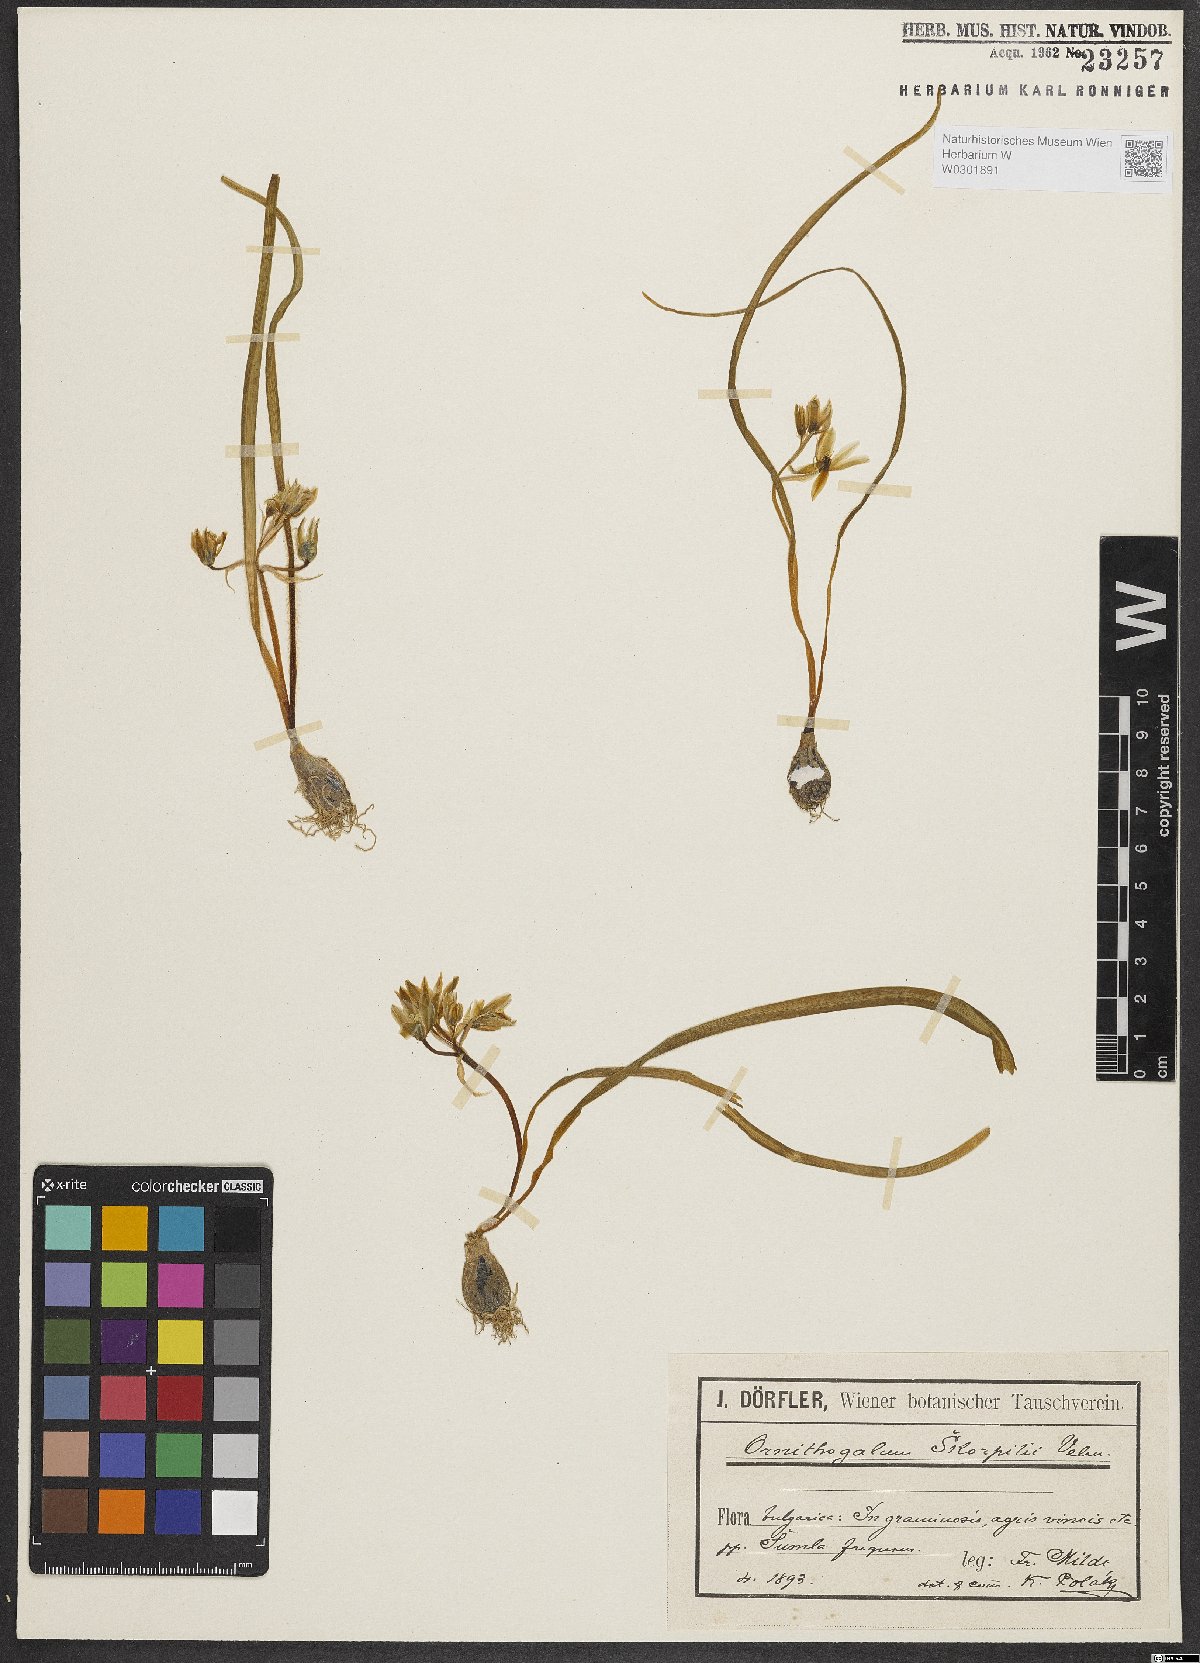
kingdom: Plantae
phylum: Tracheophyta
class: Liliopsida
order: Asparagales
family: Asparagaceae
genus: Ornithogalum
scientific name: Ornithogalum fimbriatum
